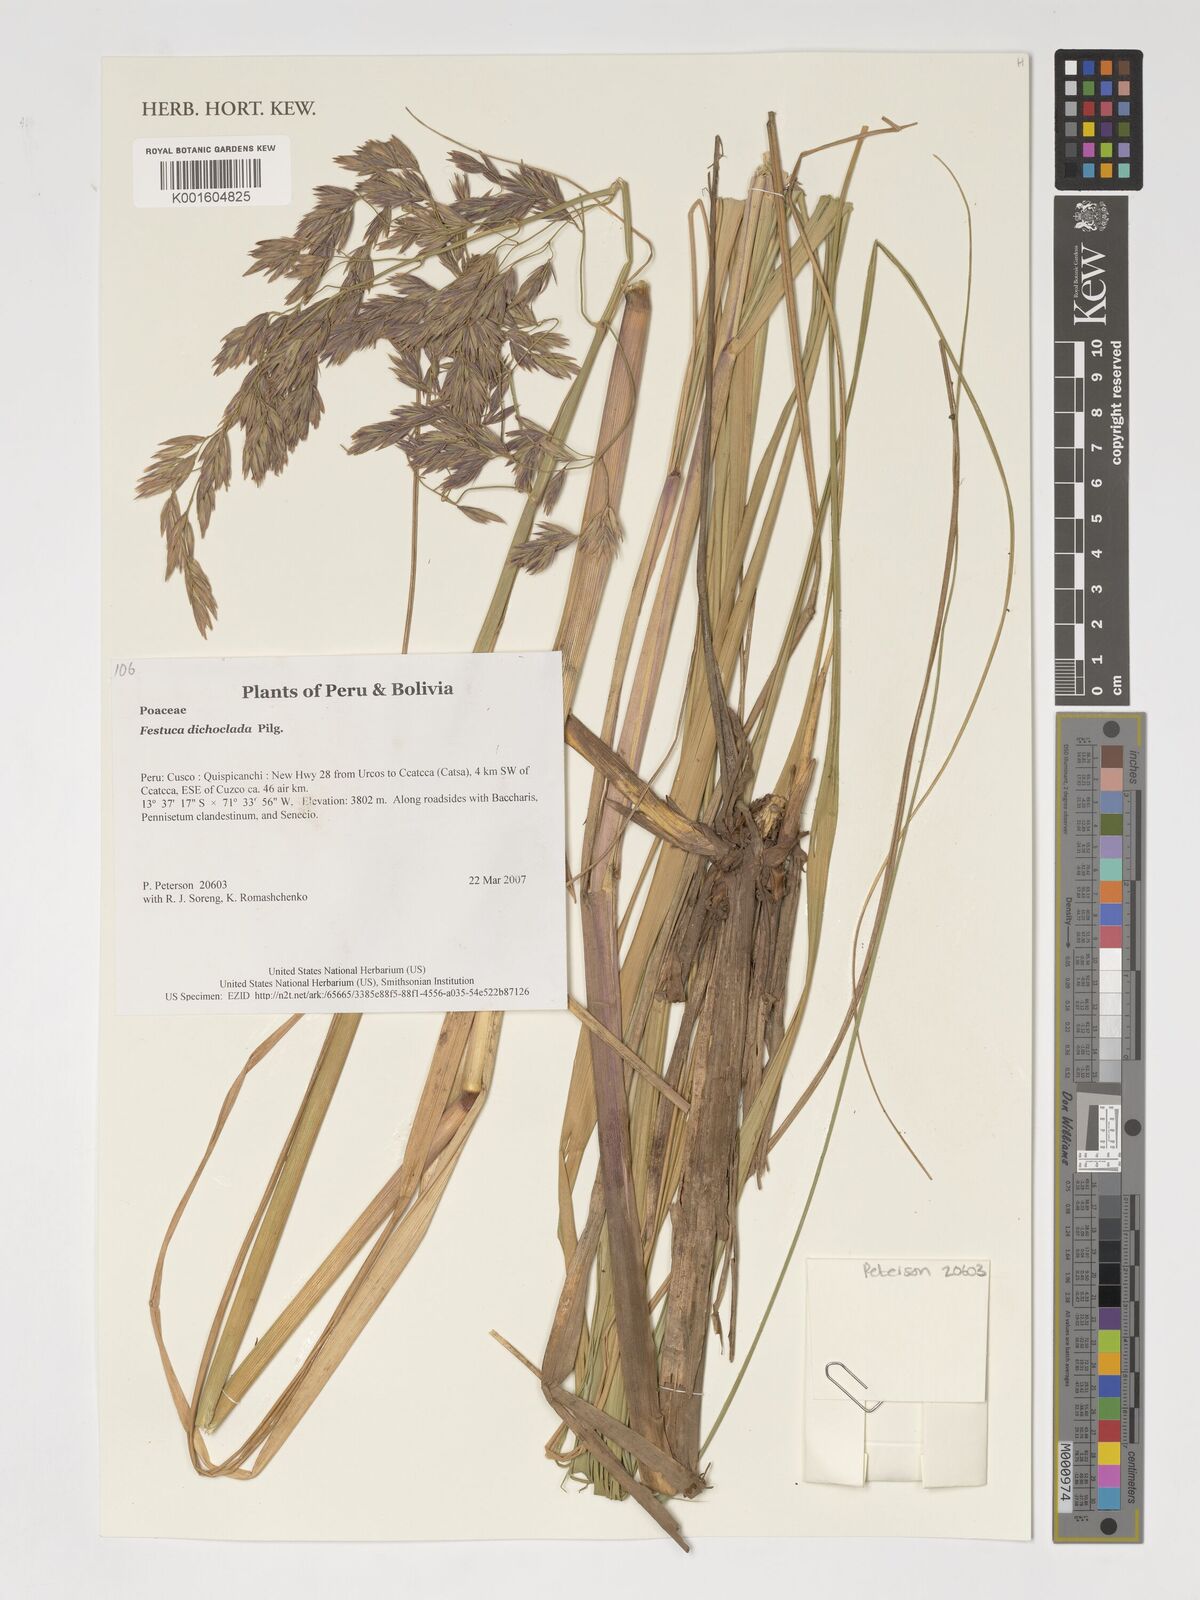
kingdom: Plantae
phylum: Tracheophyta
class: Liliopsida
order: Poales
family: Poaceae
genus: Festuca
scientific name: Festuca dichoclada
